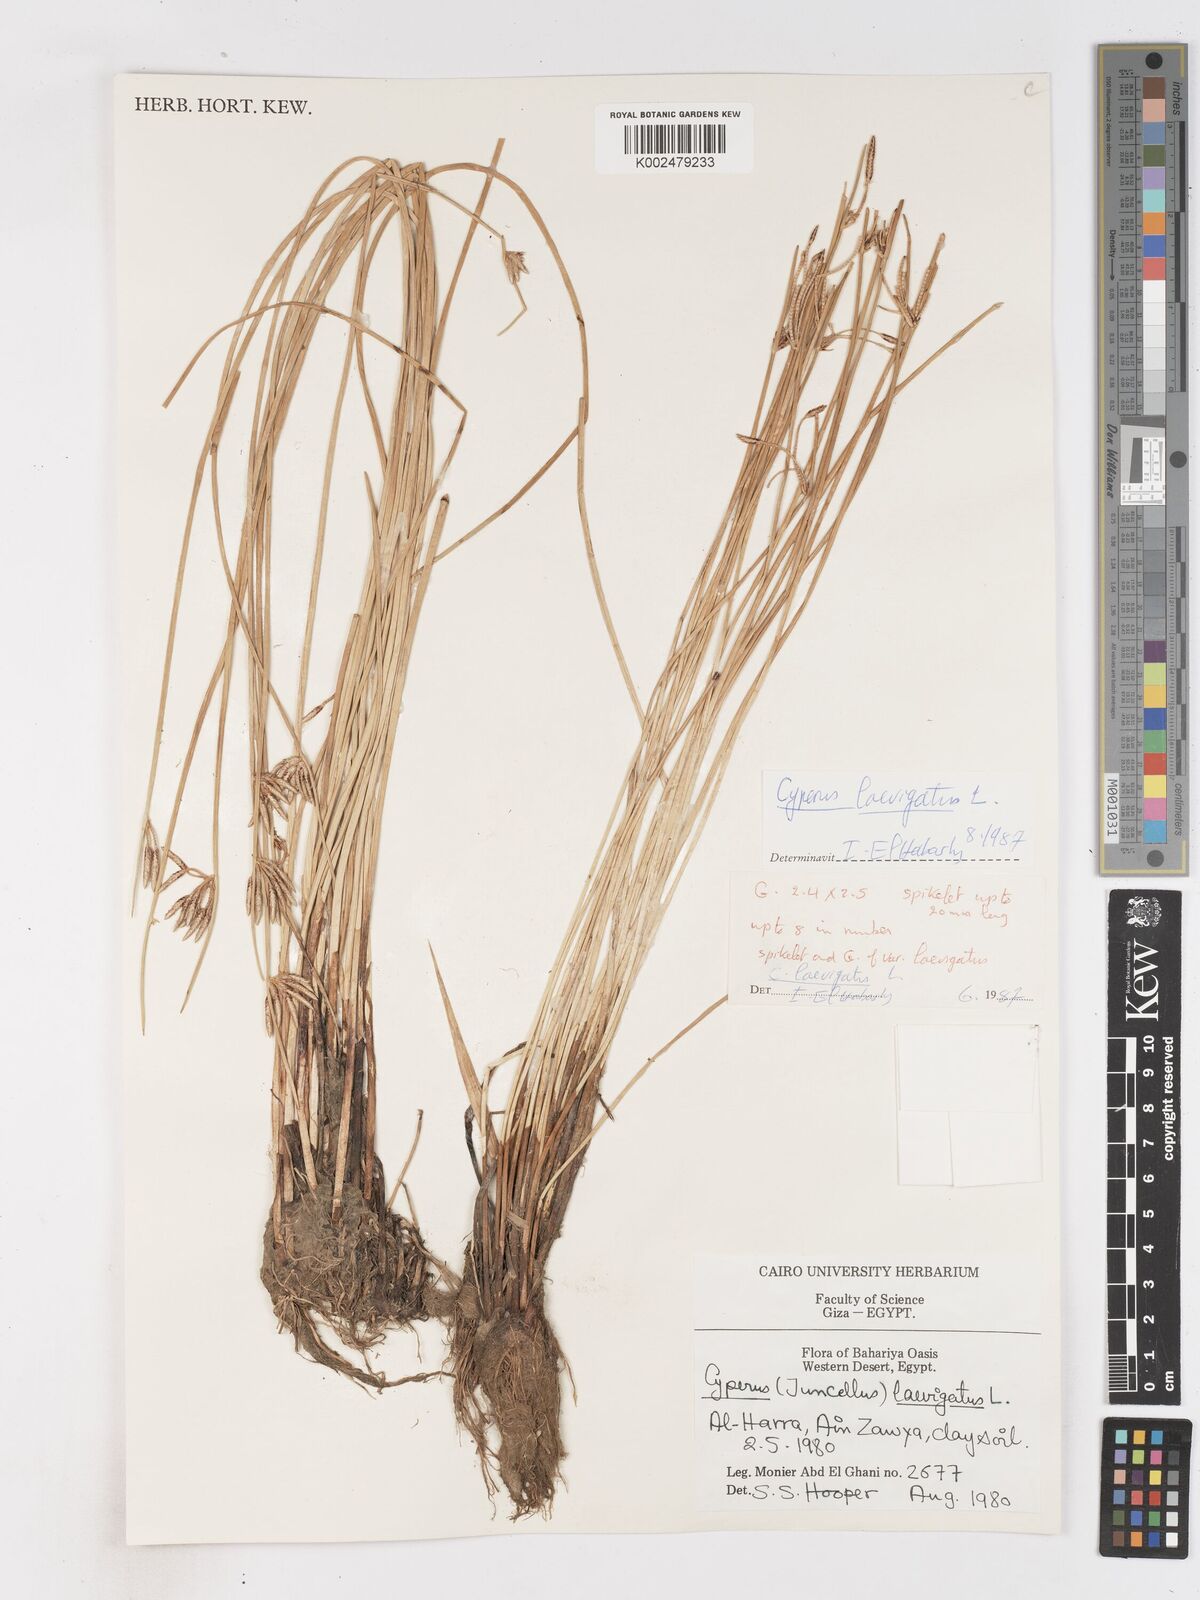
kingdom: Plantae
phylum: Tracheophyta
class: Liliopsida
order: Poales
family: Cyperaceae
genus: Cyperus
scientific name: Cyperus laevigatus
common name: Smooth flat sedge
